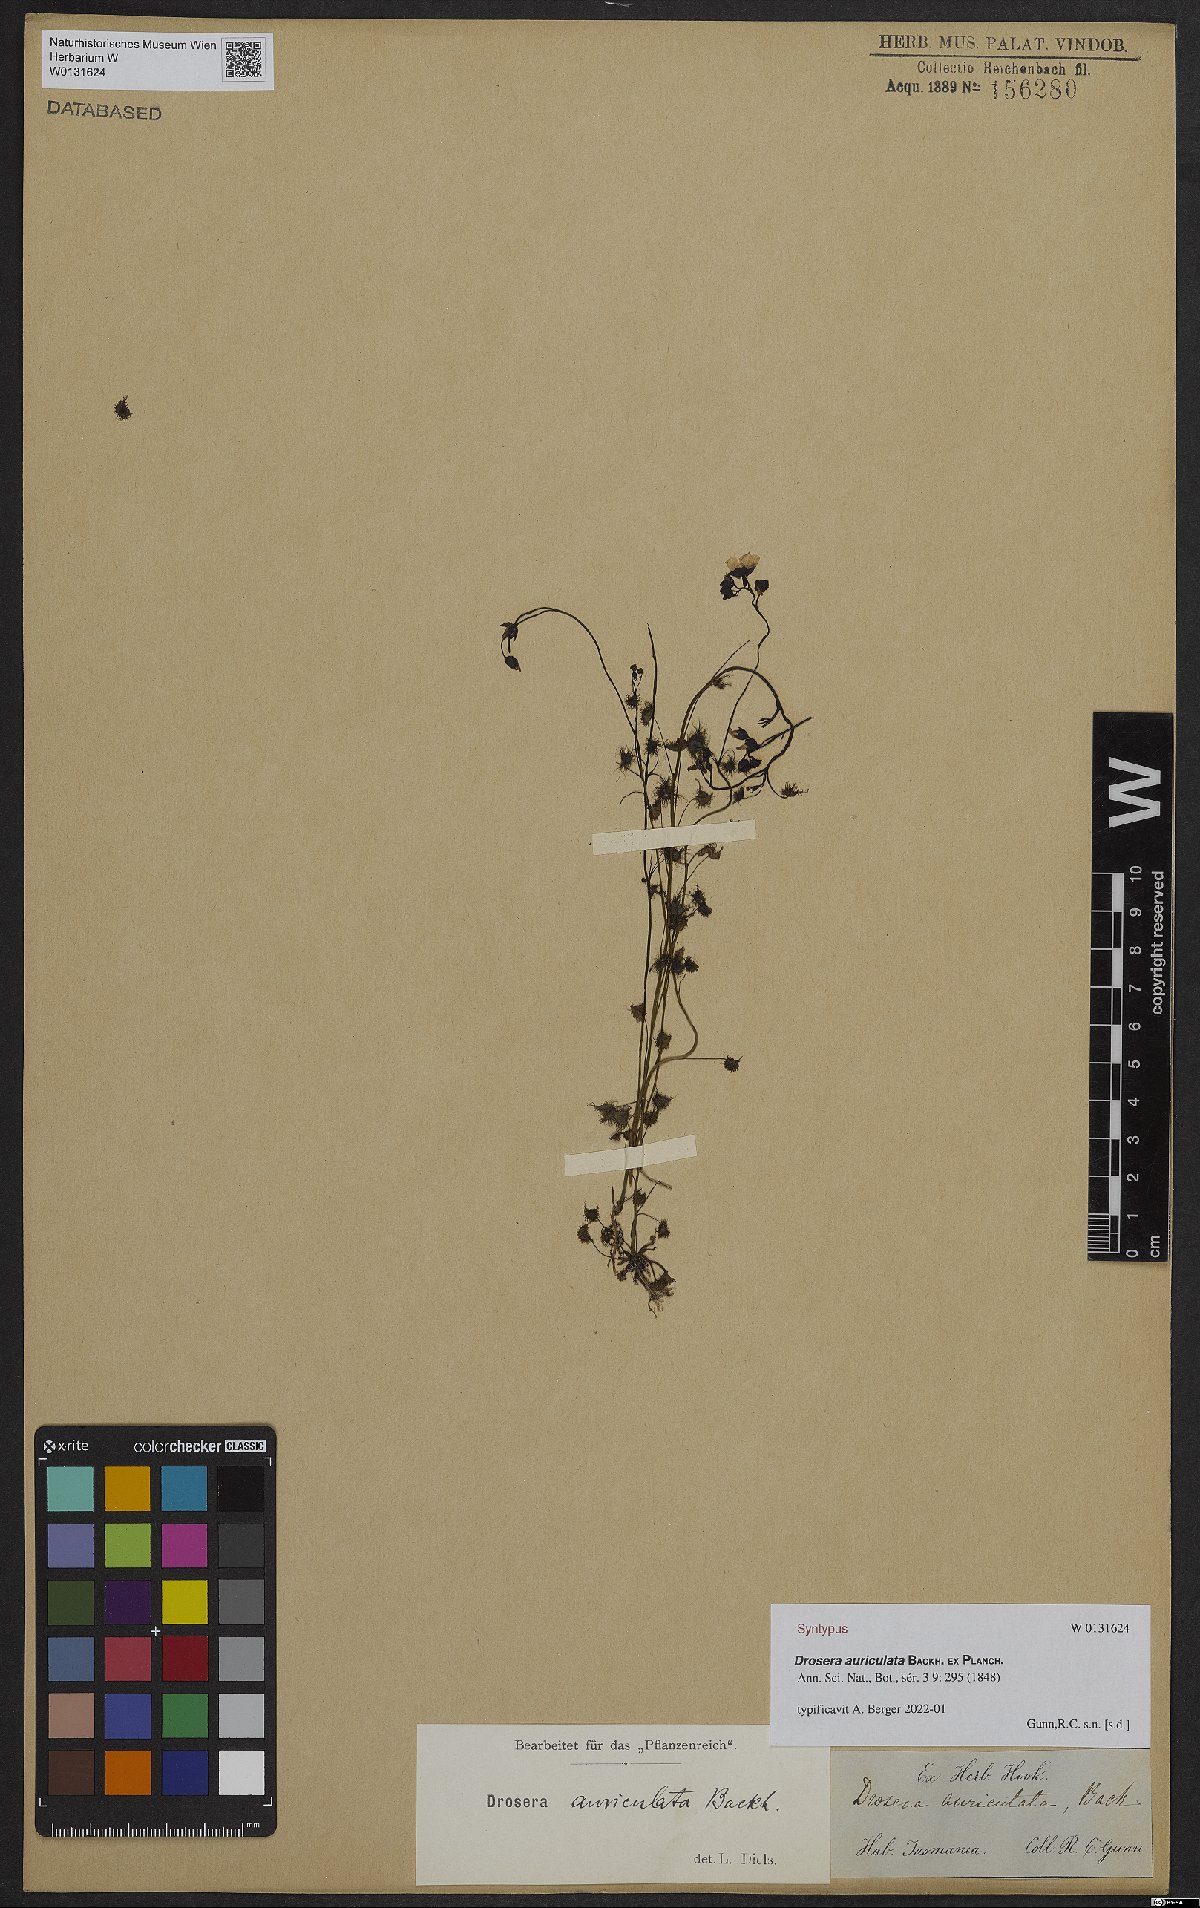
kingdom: Plantae
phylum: Tracheophyta
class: Magnoliopsida
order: Caryophyllales
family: Droseraceae
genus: Drosera
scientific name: Drosera peltata
